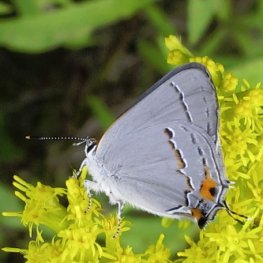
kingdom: Animalia
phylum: Arthropoda
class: Insecta
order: Lepidoptera
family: Lycaenidae
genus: Strymon
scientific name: Strymon melinus
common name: Gray Hairstreak
